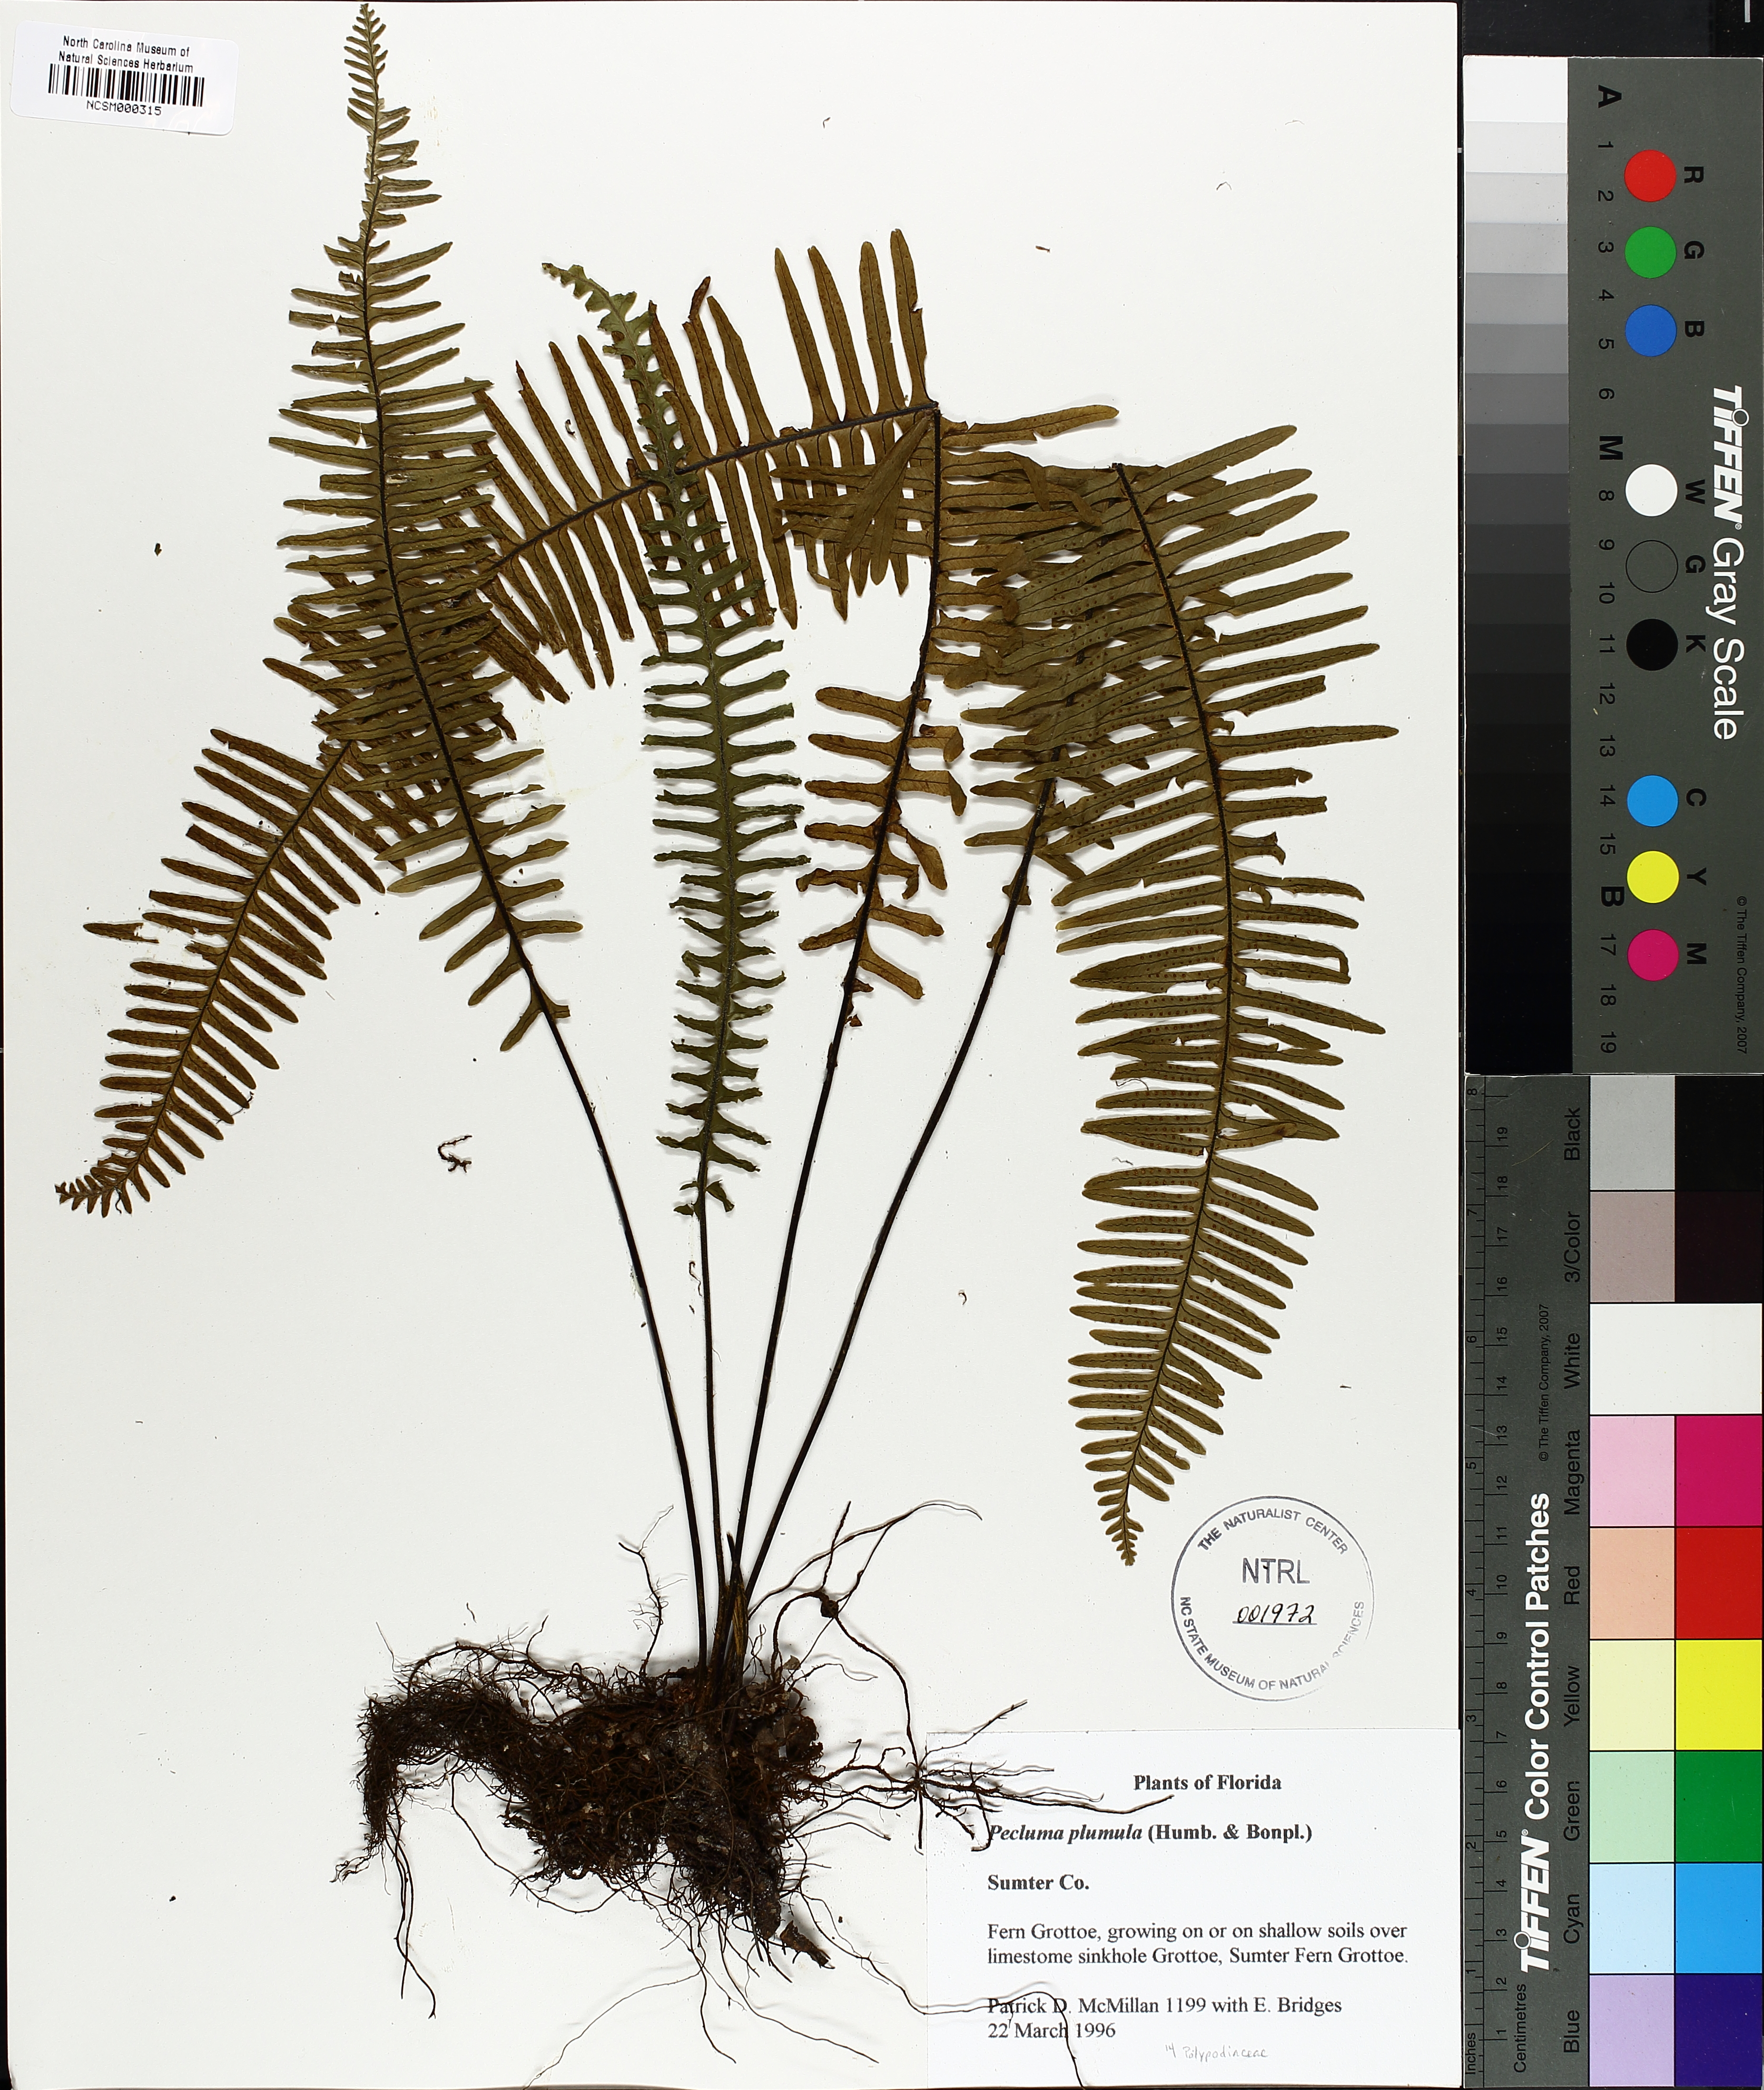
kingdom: Plantae
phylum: Tracheophyta
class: Polypodiopsida
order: Polypodiales
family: Polypodiaceae
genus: Pecluma
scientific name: Pecluma plumula
